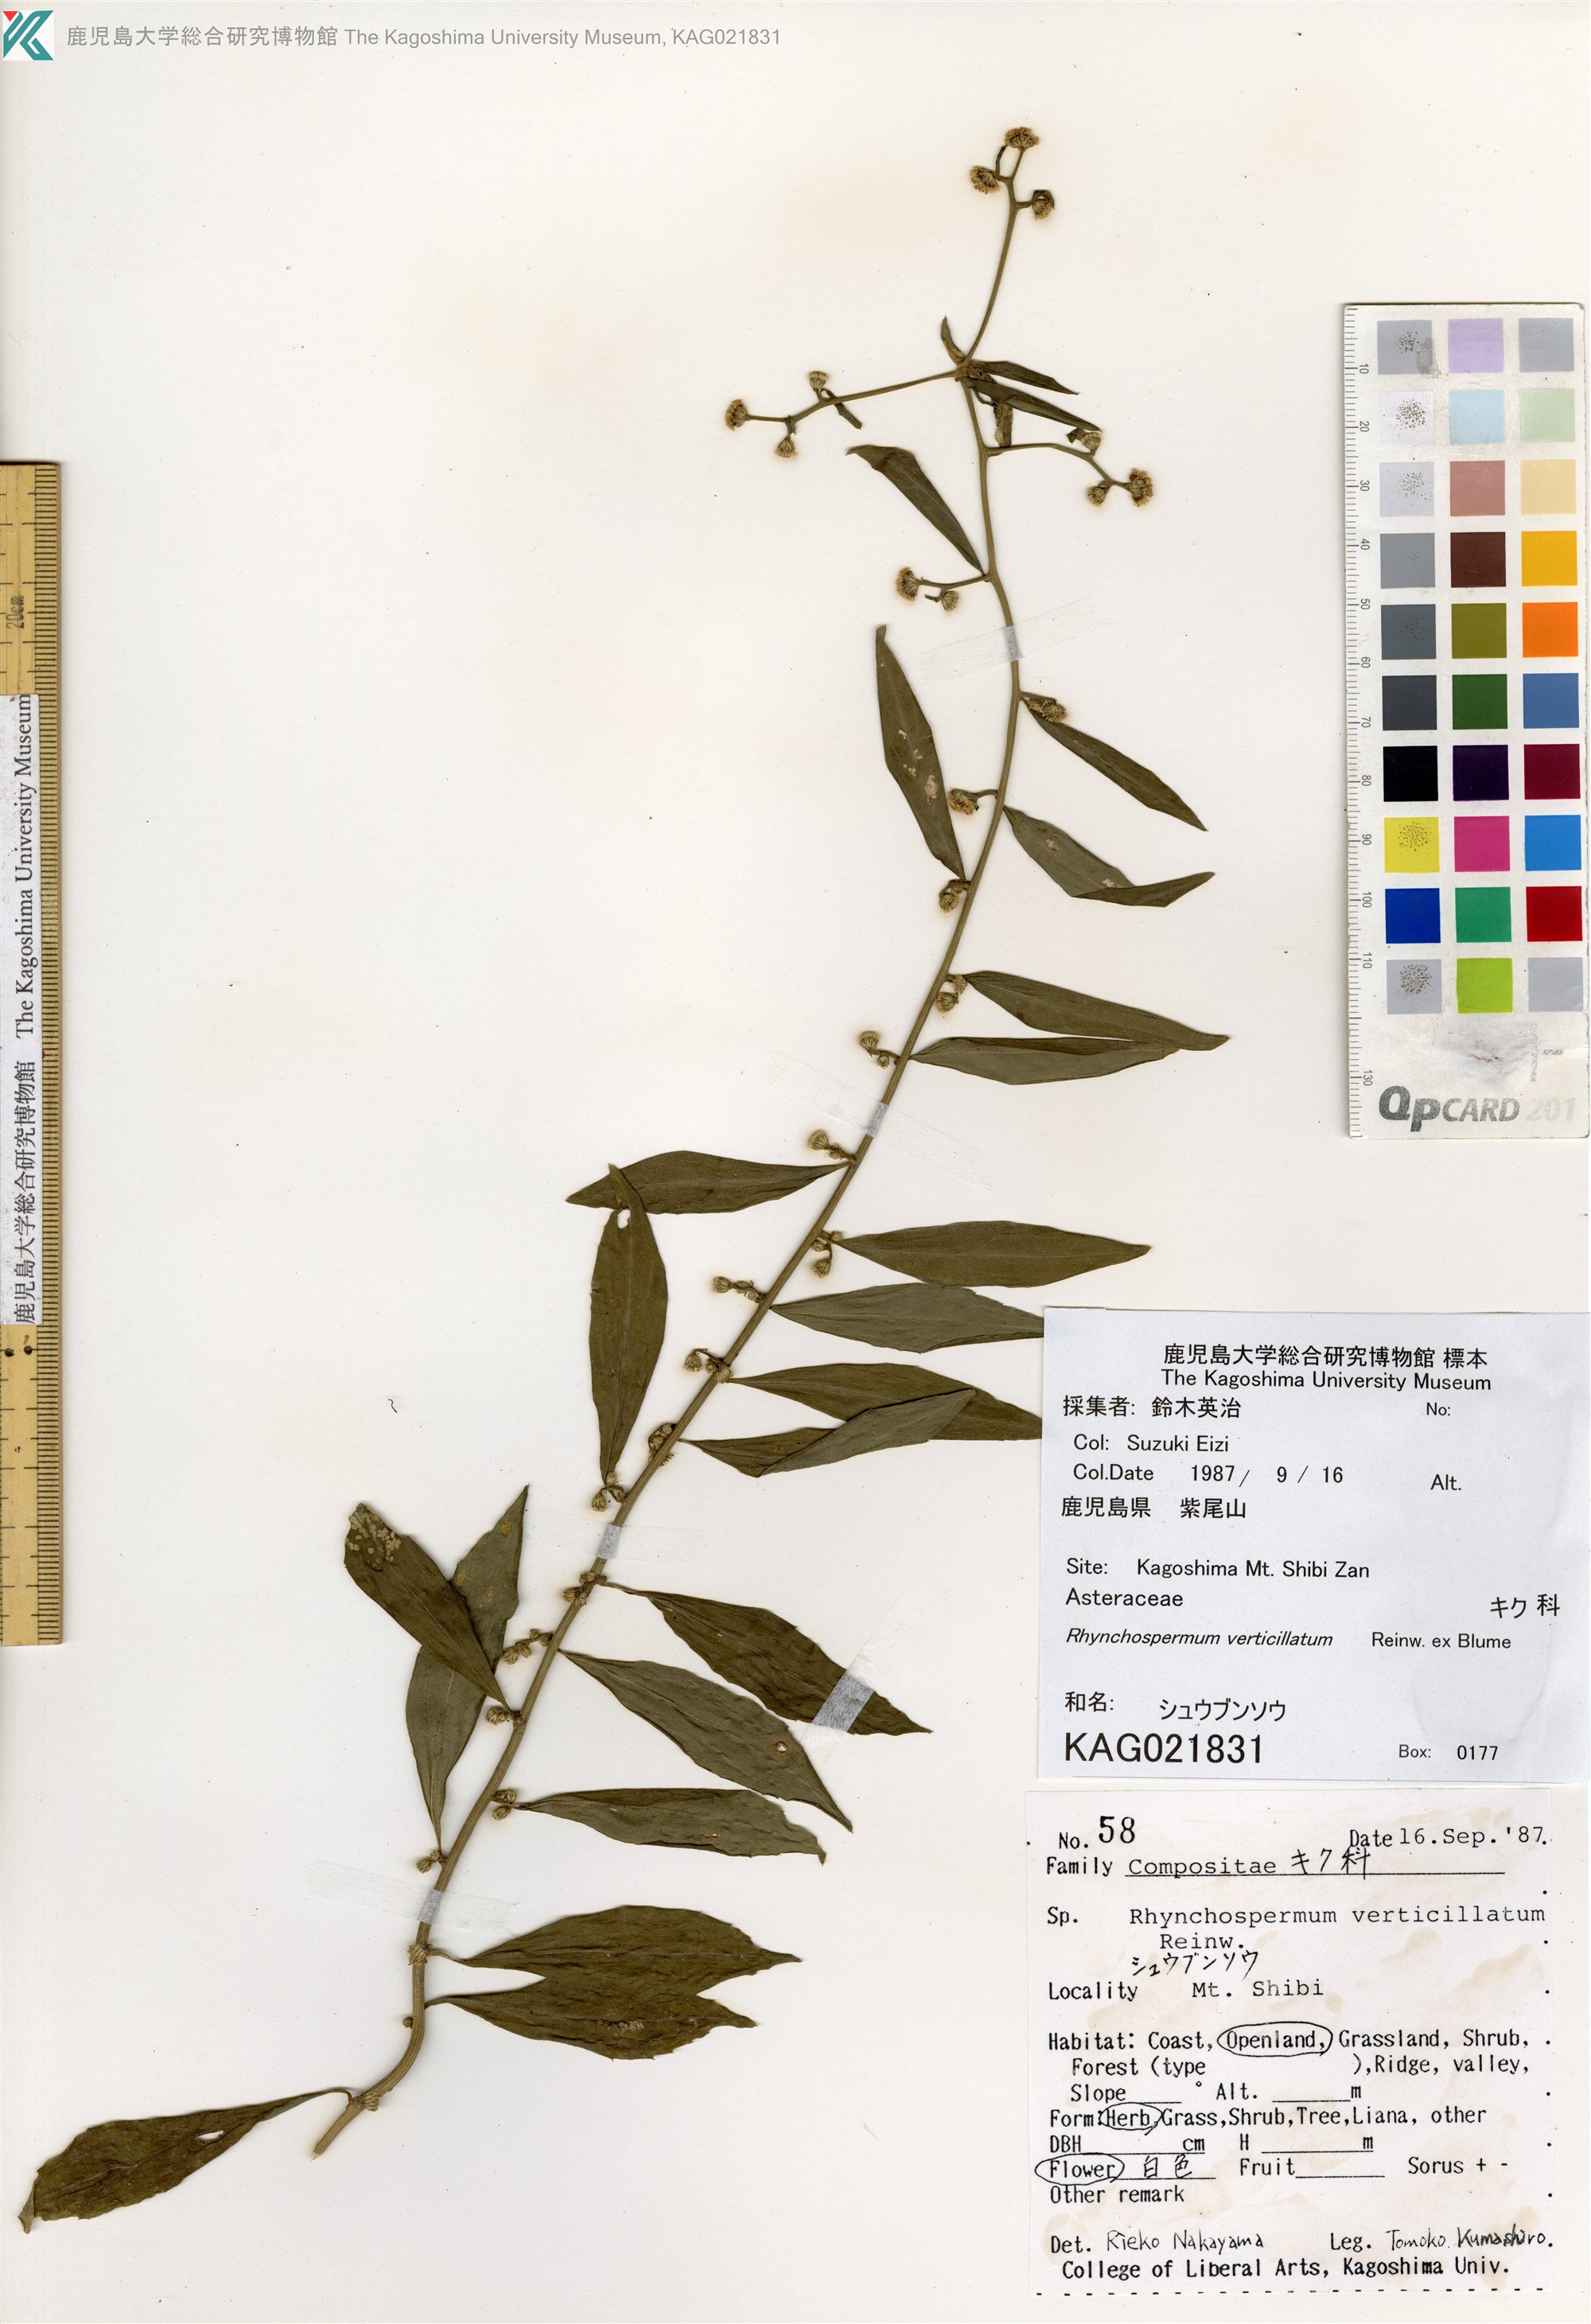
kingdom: Plantae
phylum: Tracheophyta
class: Magnoliopsida
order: Asterales
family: Asteraceae
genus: Rhynchospermum
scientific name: Rhynchospermum verticillatum
